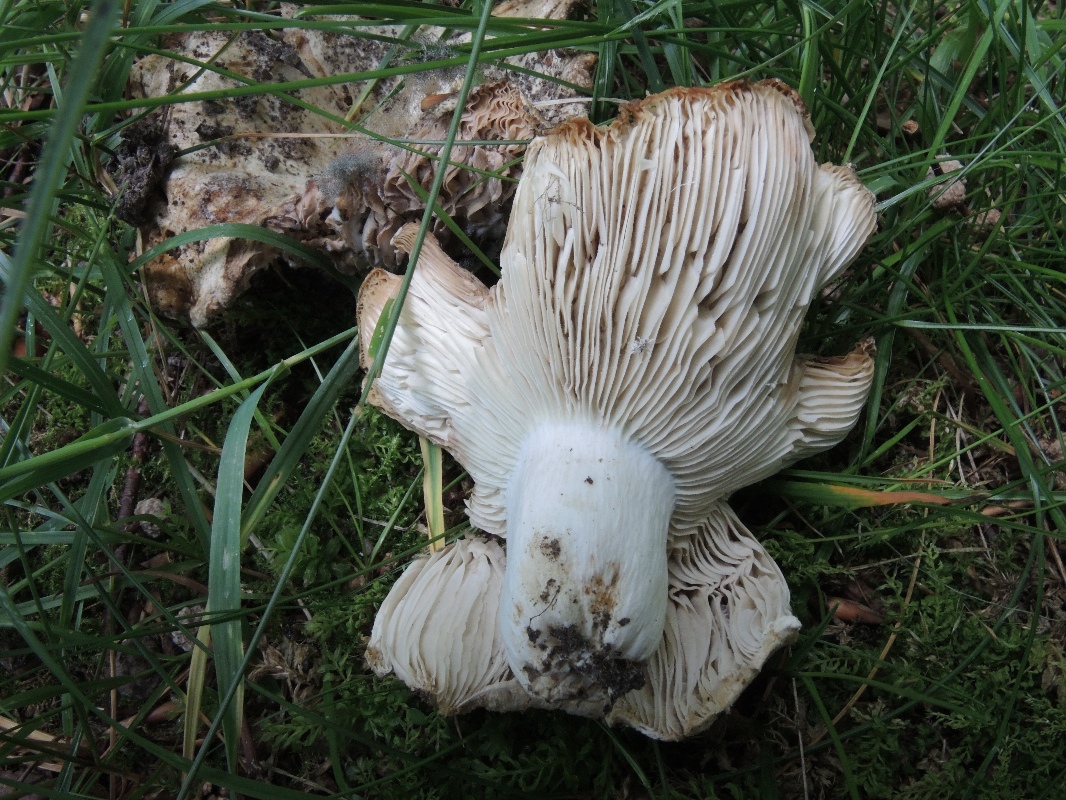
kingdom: Fungi
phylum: Basidiomycota
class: Agaricomycetes
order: Russulales
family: Russulaceae
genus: Russula
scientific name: Russula chloroides
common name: grønhalset tragt-skørhat
